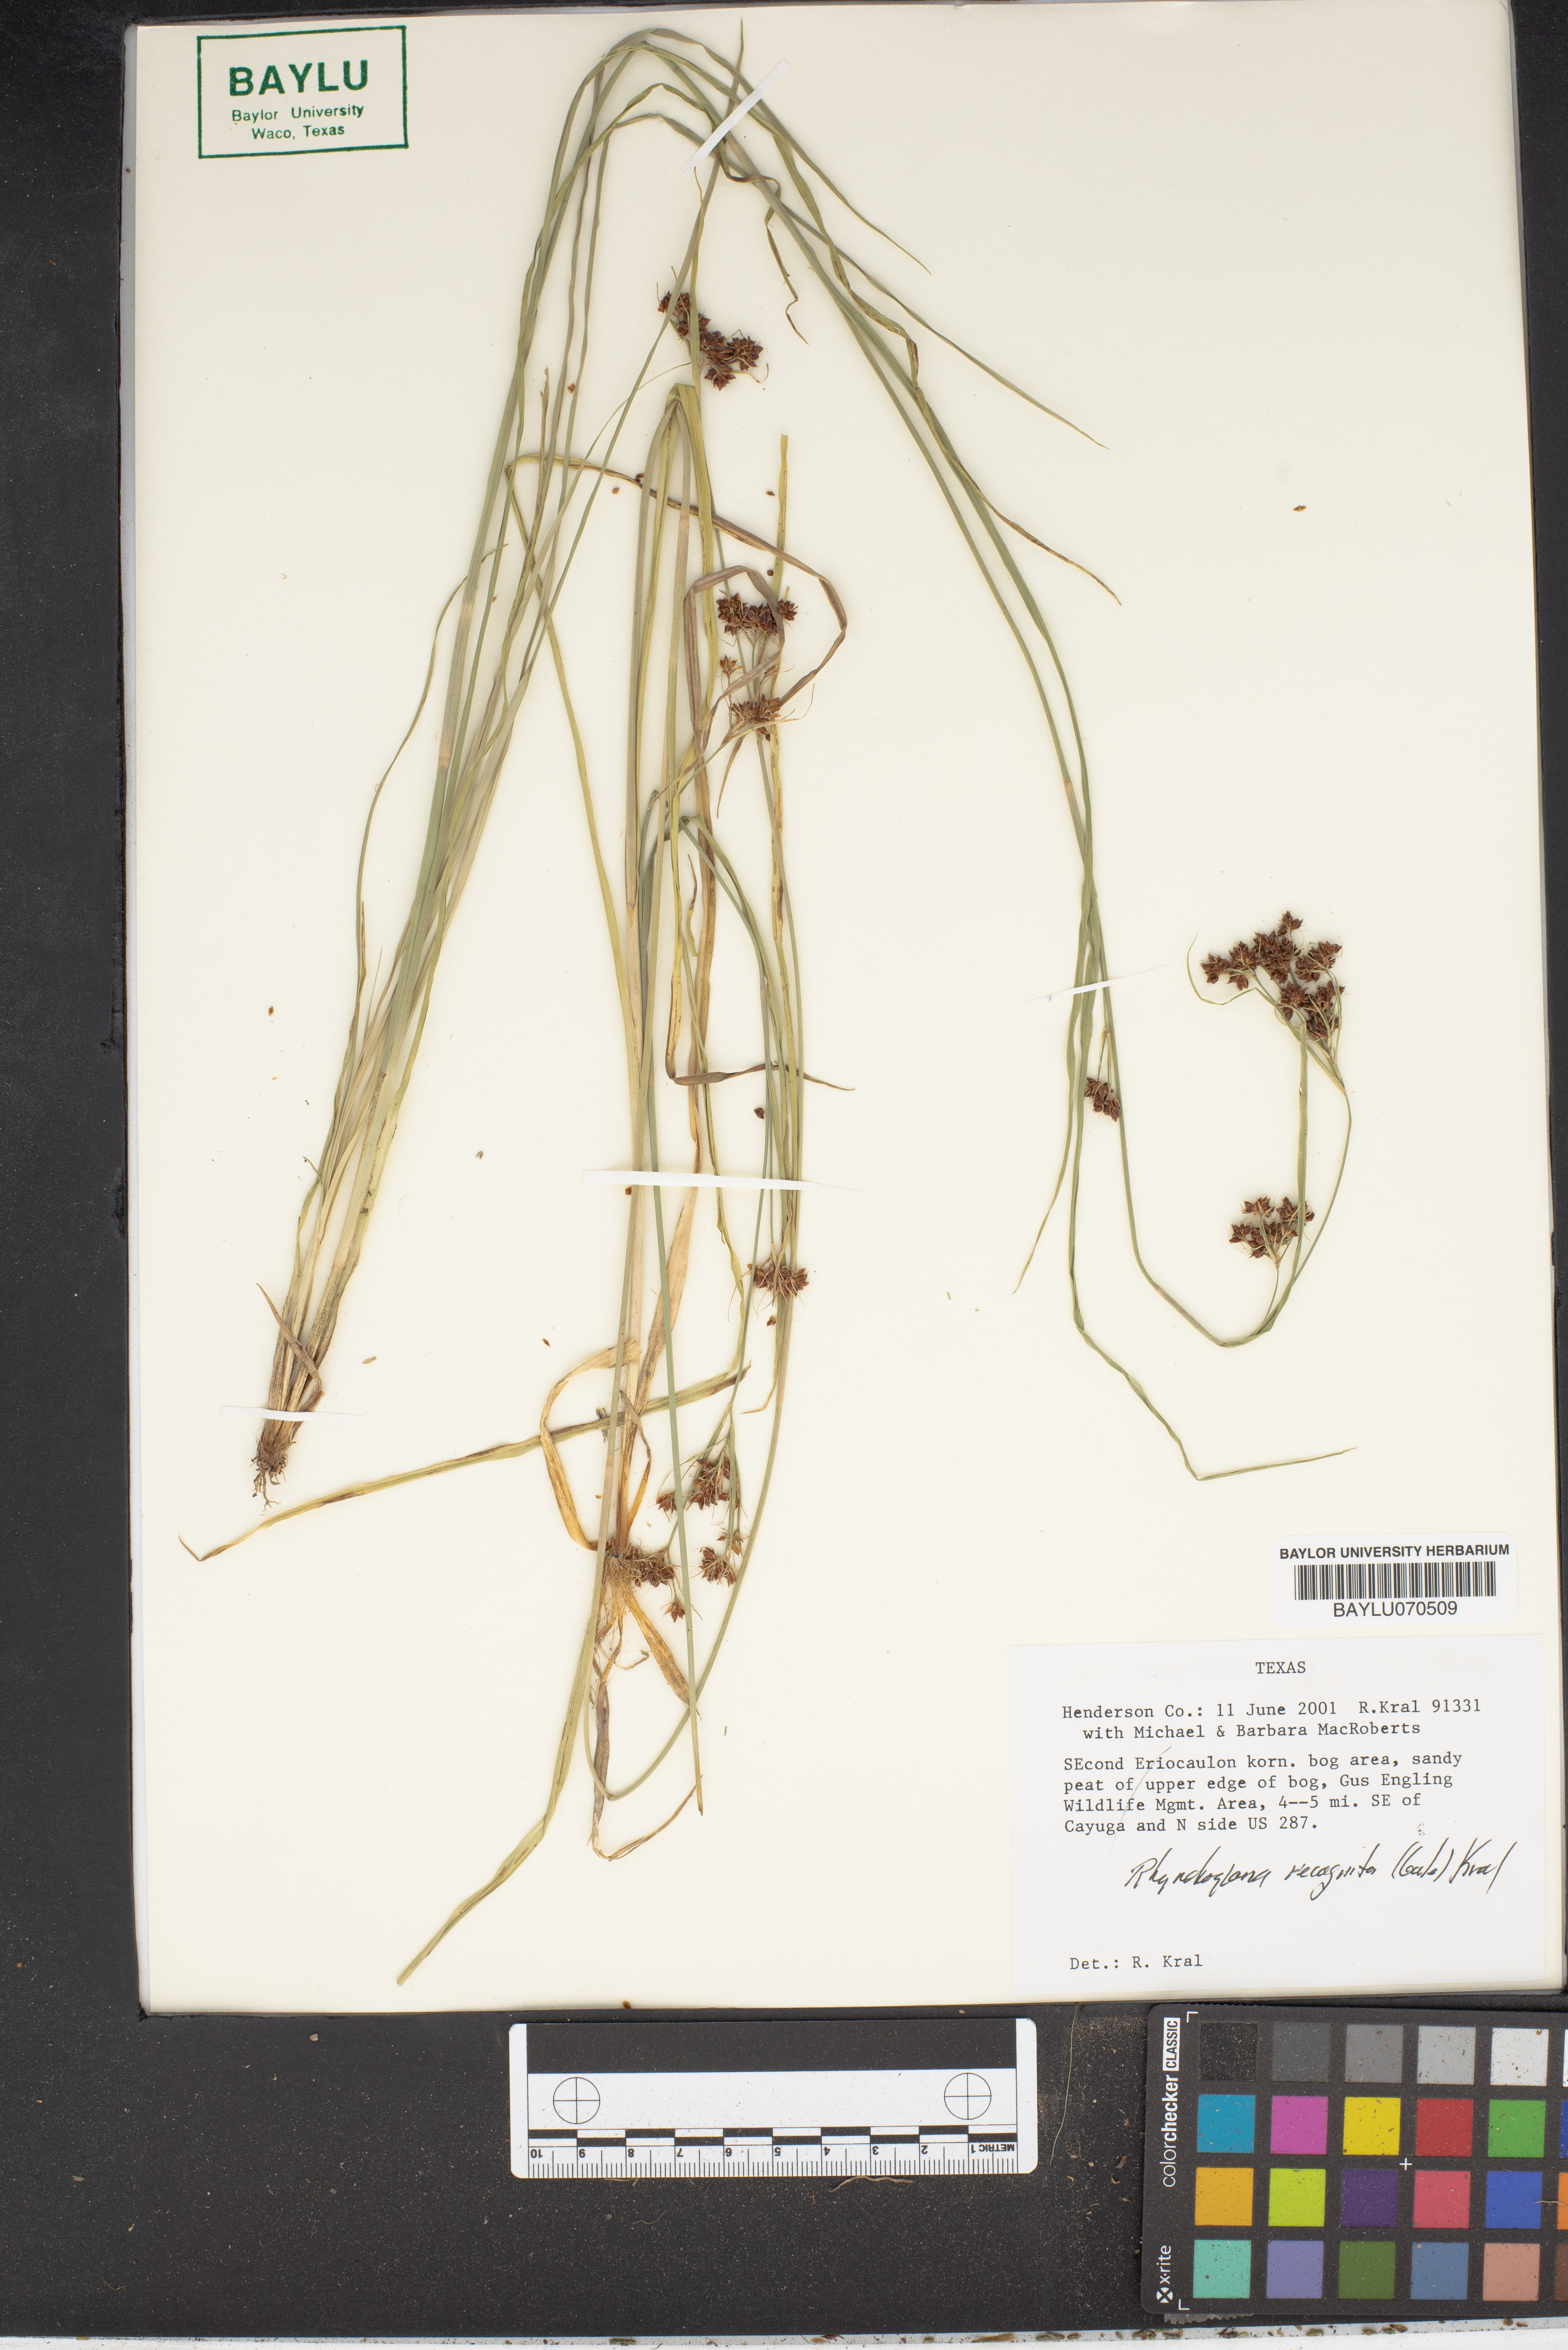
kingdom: Plantae
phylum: Tracheophyta
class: Liliopsida
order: Poales
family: Cyperaceae
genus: Rhynchospora
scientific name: Rhynchospora recognita
